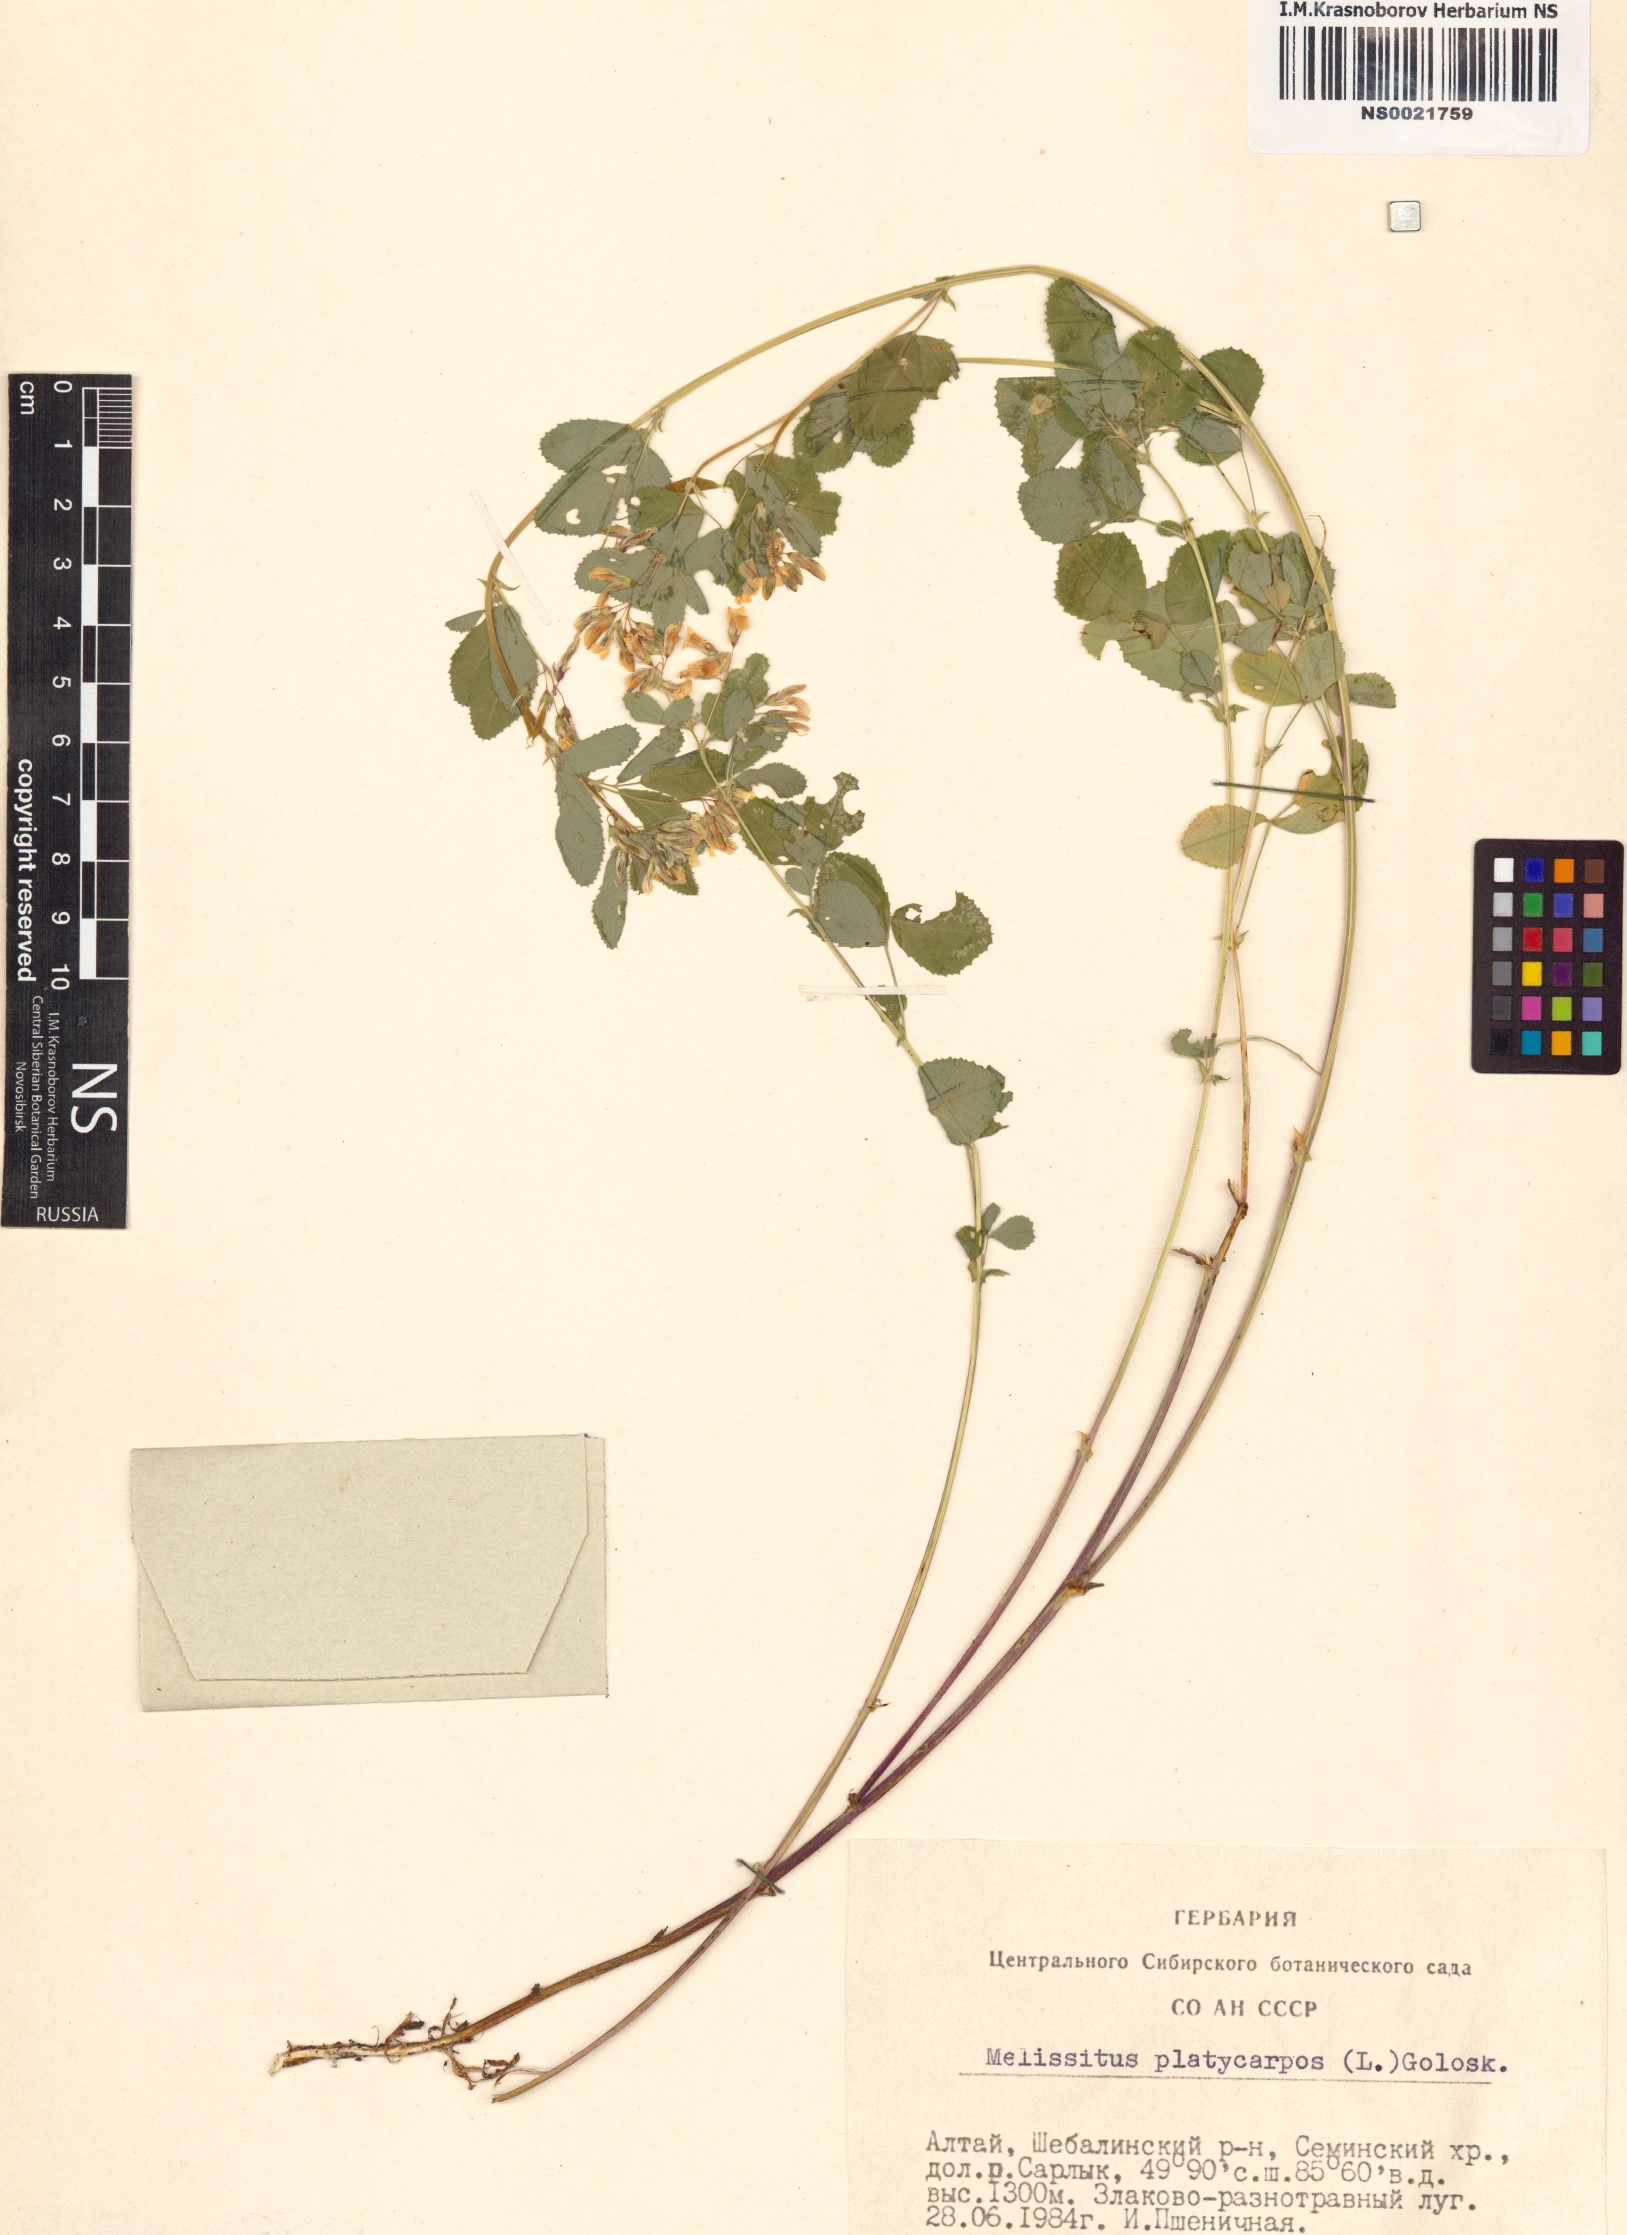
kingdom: Plantae
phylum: Tracheophyta
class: Magnoliopsida
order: Fabales
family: Fabaceae
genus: Medicago
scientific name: Medicago platycarpos
